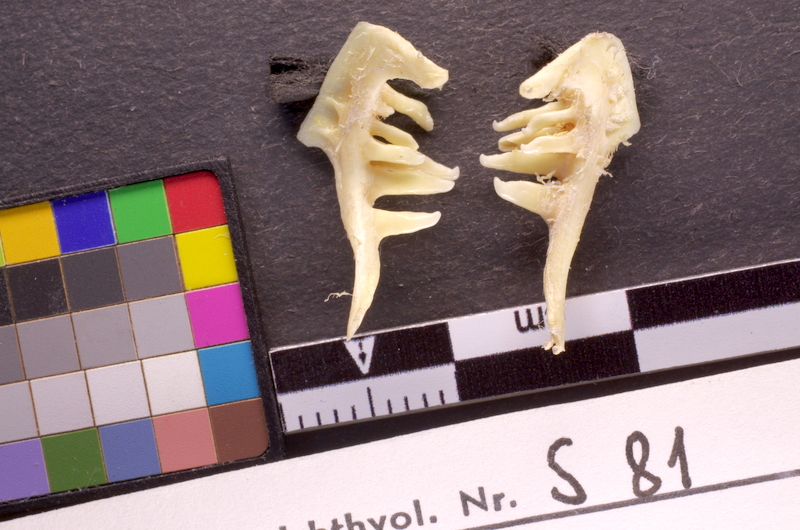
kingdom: Animalia
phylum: Chordata
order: Cypriniformes
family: Cyprinidae
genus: Squalius
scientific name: Squalius cephalus
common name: Chub
